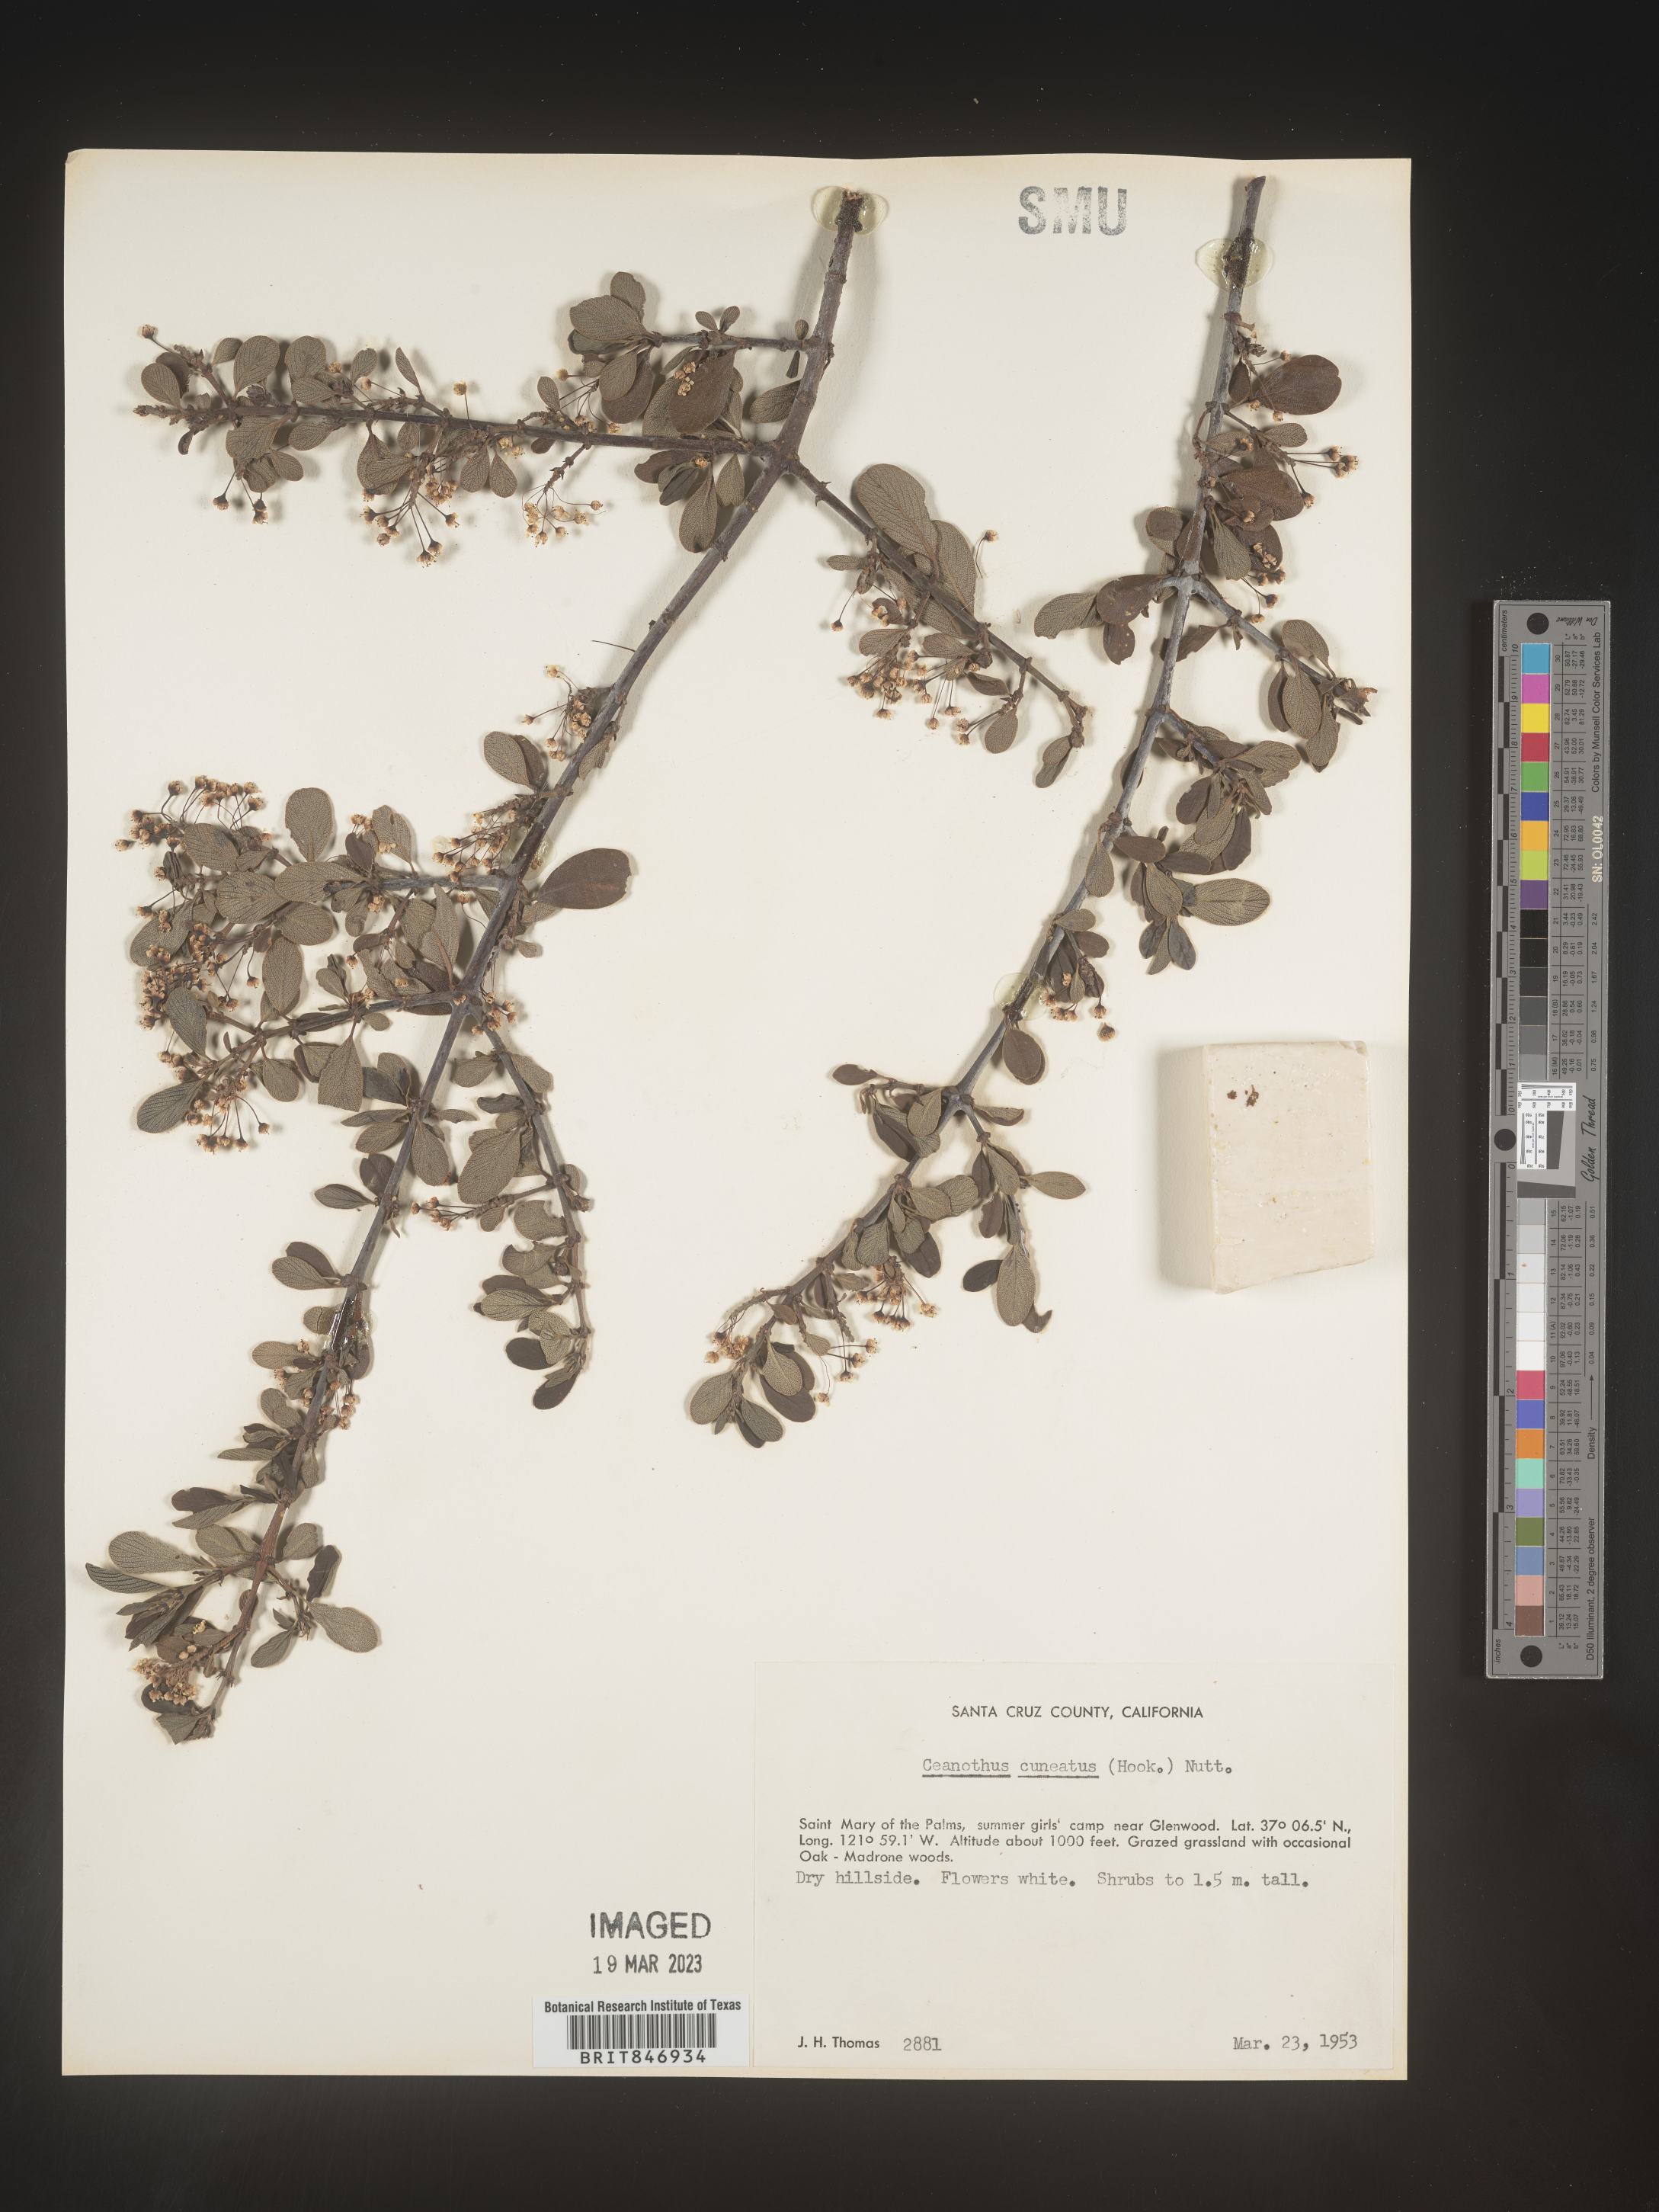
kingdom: Plantae
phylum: Tracheophyta
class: Magnoliopsida
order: Rosales
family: Rhamnaceae
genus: Ceanothus
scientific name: Ceanothus cuneatus
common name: Cuneate ceanothus
